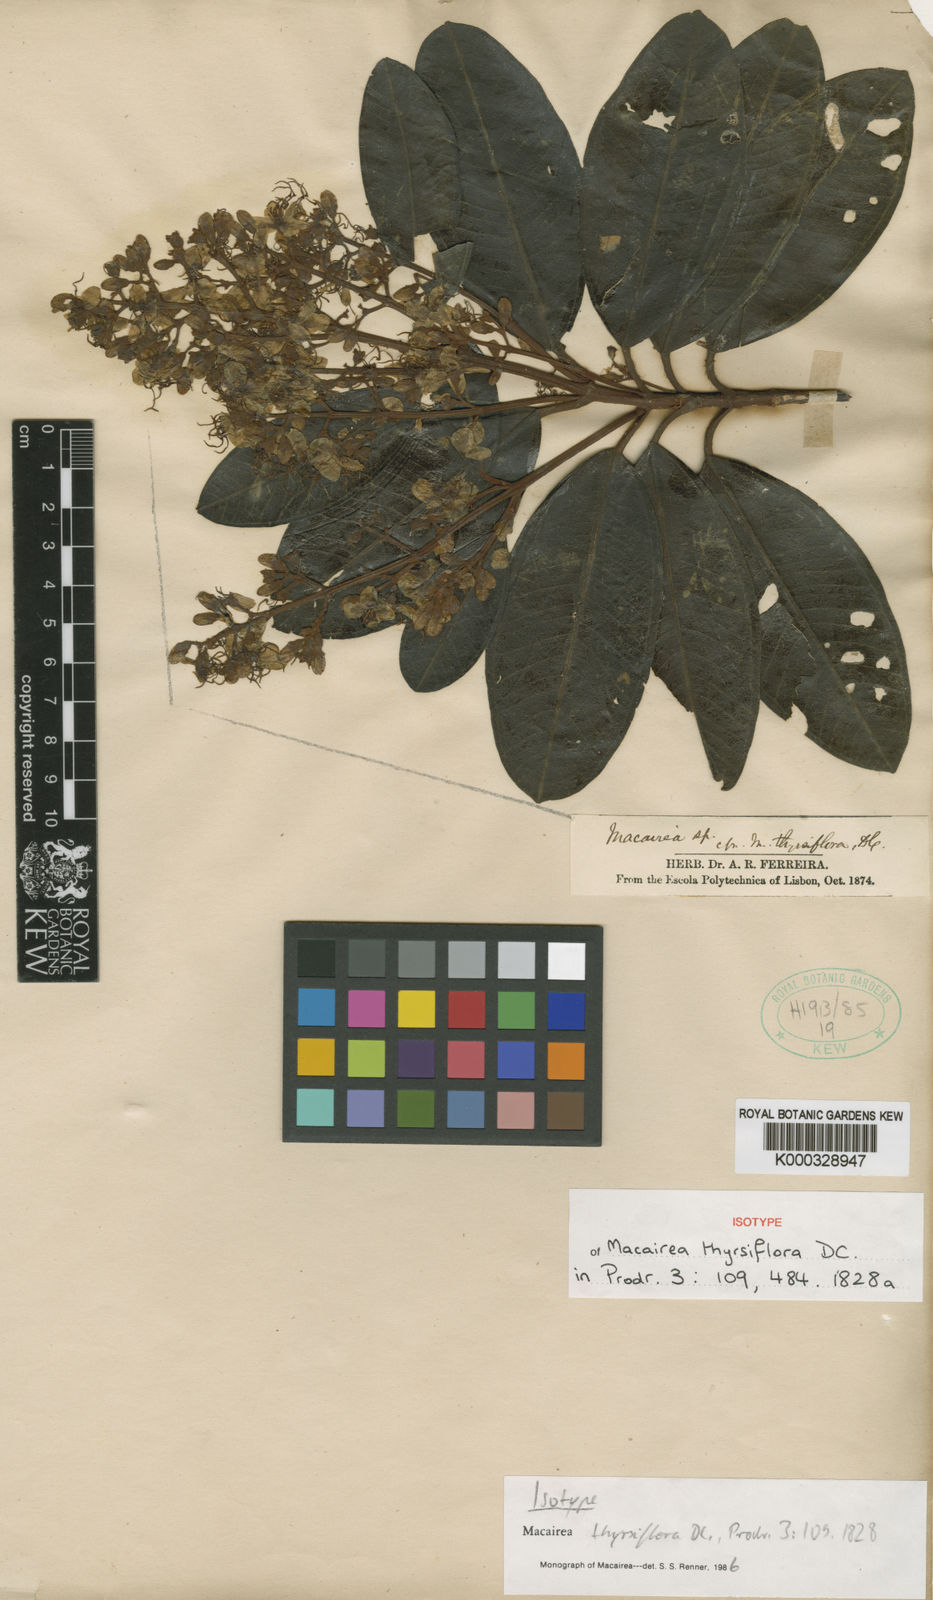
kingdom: Plantae
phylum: Tracheophyta
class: Magnoliopsida
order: Myrtales
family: Melastomataceae
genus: Macairea
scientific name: Macairea thyrsiflora
